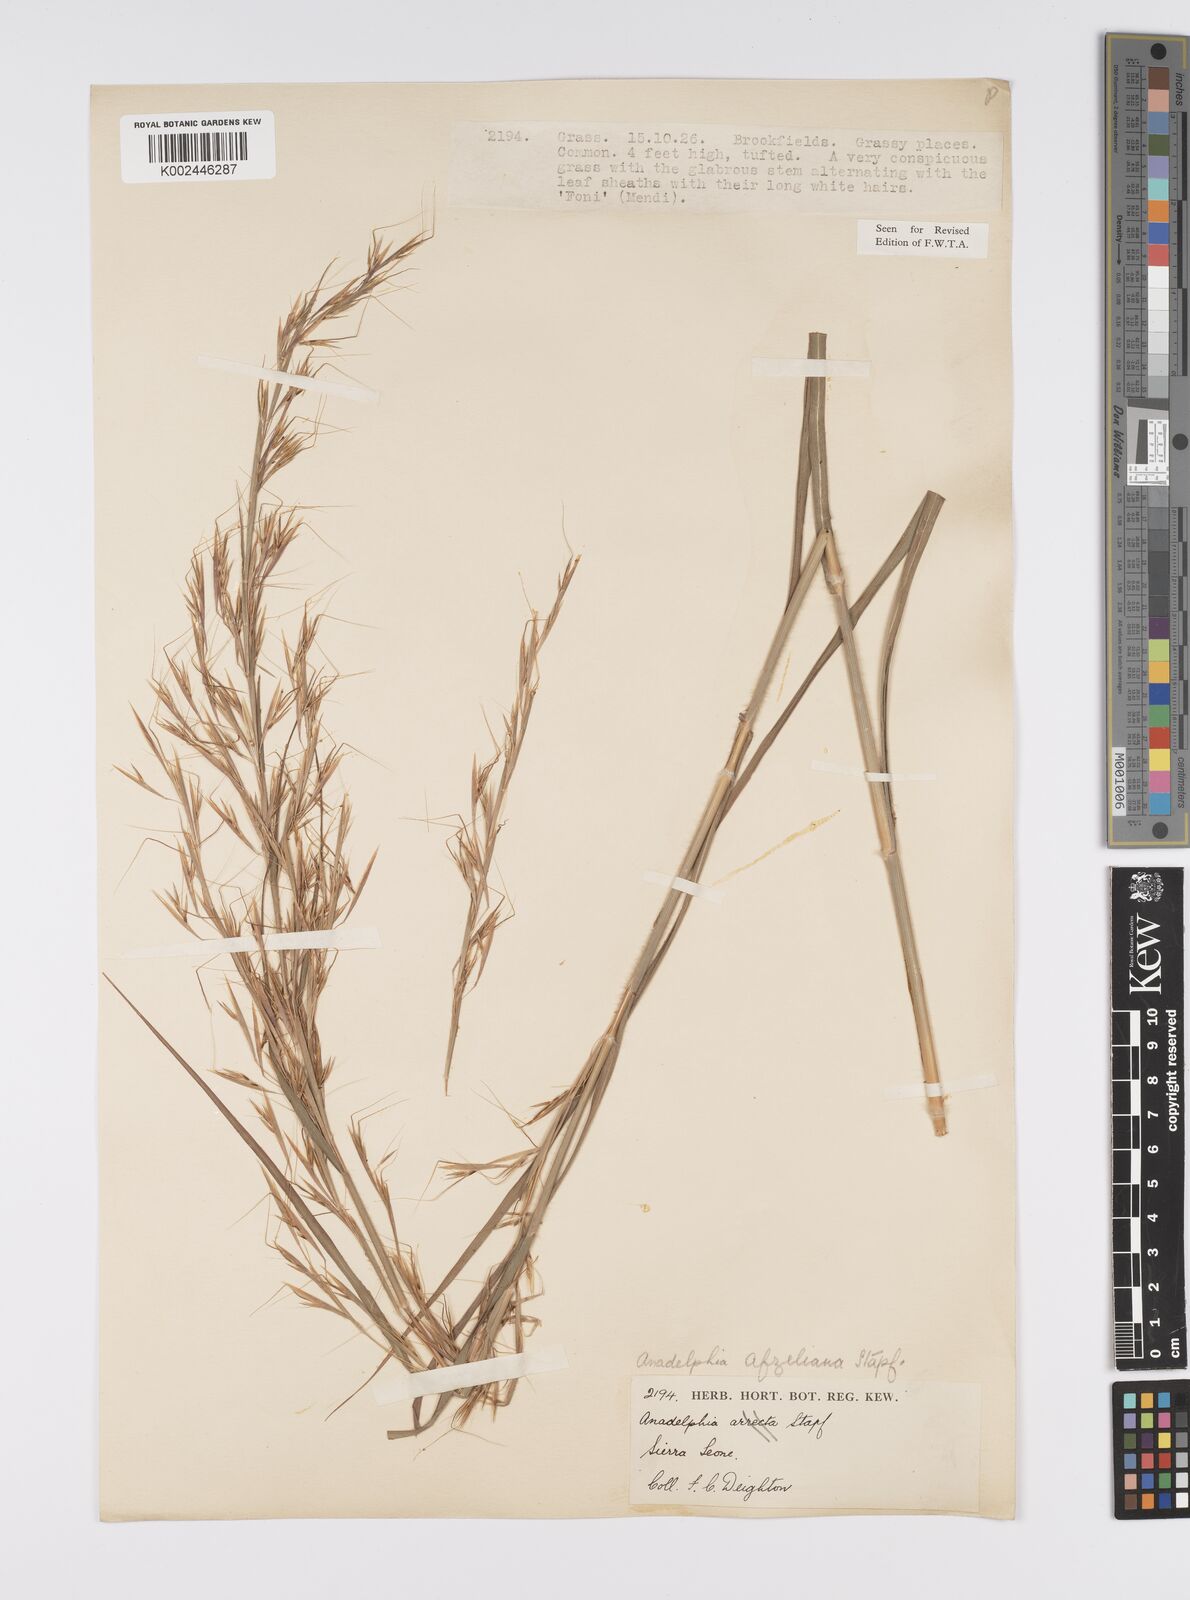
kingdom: Plantae
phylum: Tracheophyta
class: Liliopsida
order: Poales
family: Poaceae
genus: Anadelphia
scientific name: Anadelphia afzeliana
